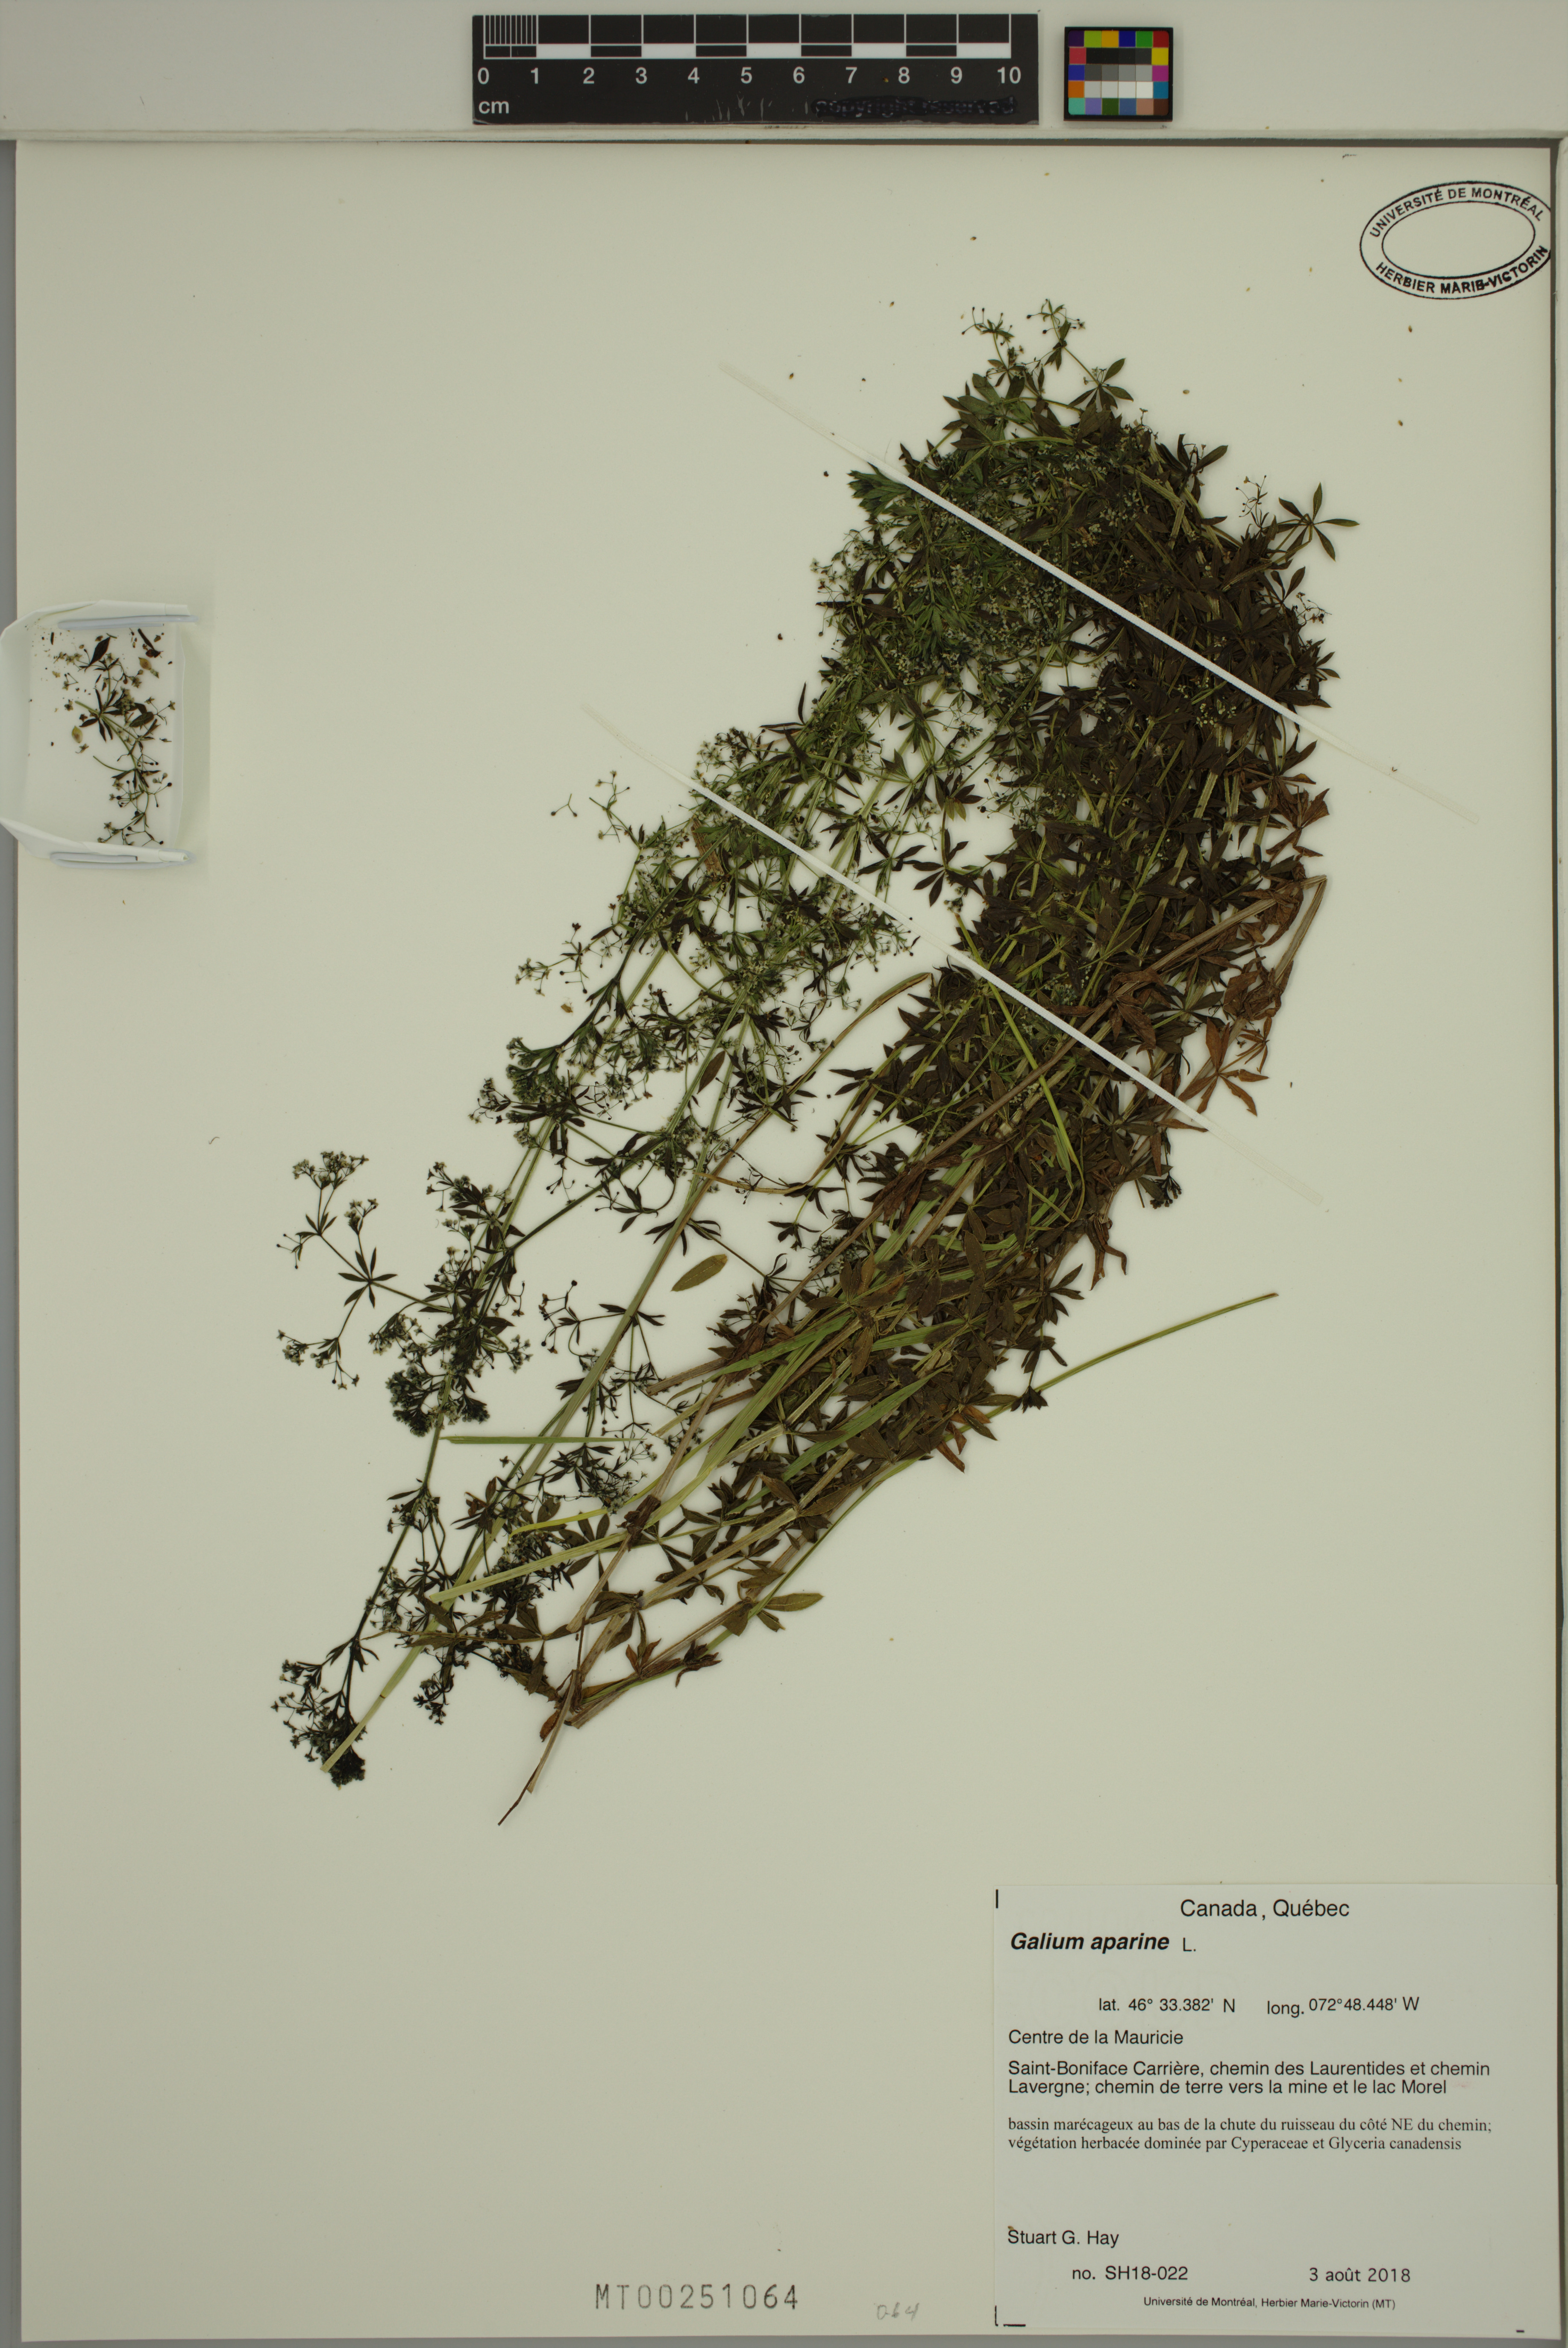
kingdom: Plantae
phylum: Tracheophyta
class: Magnoliopsida
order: Gentianales
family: Rubiaceae
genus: Galium
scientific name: Galium aparine
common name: Cleavers
